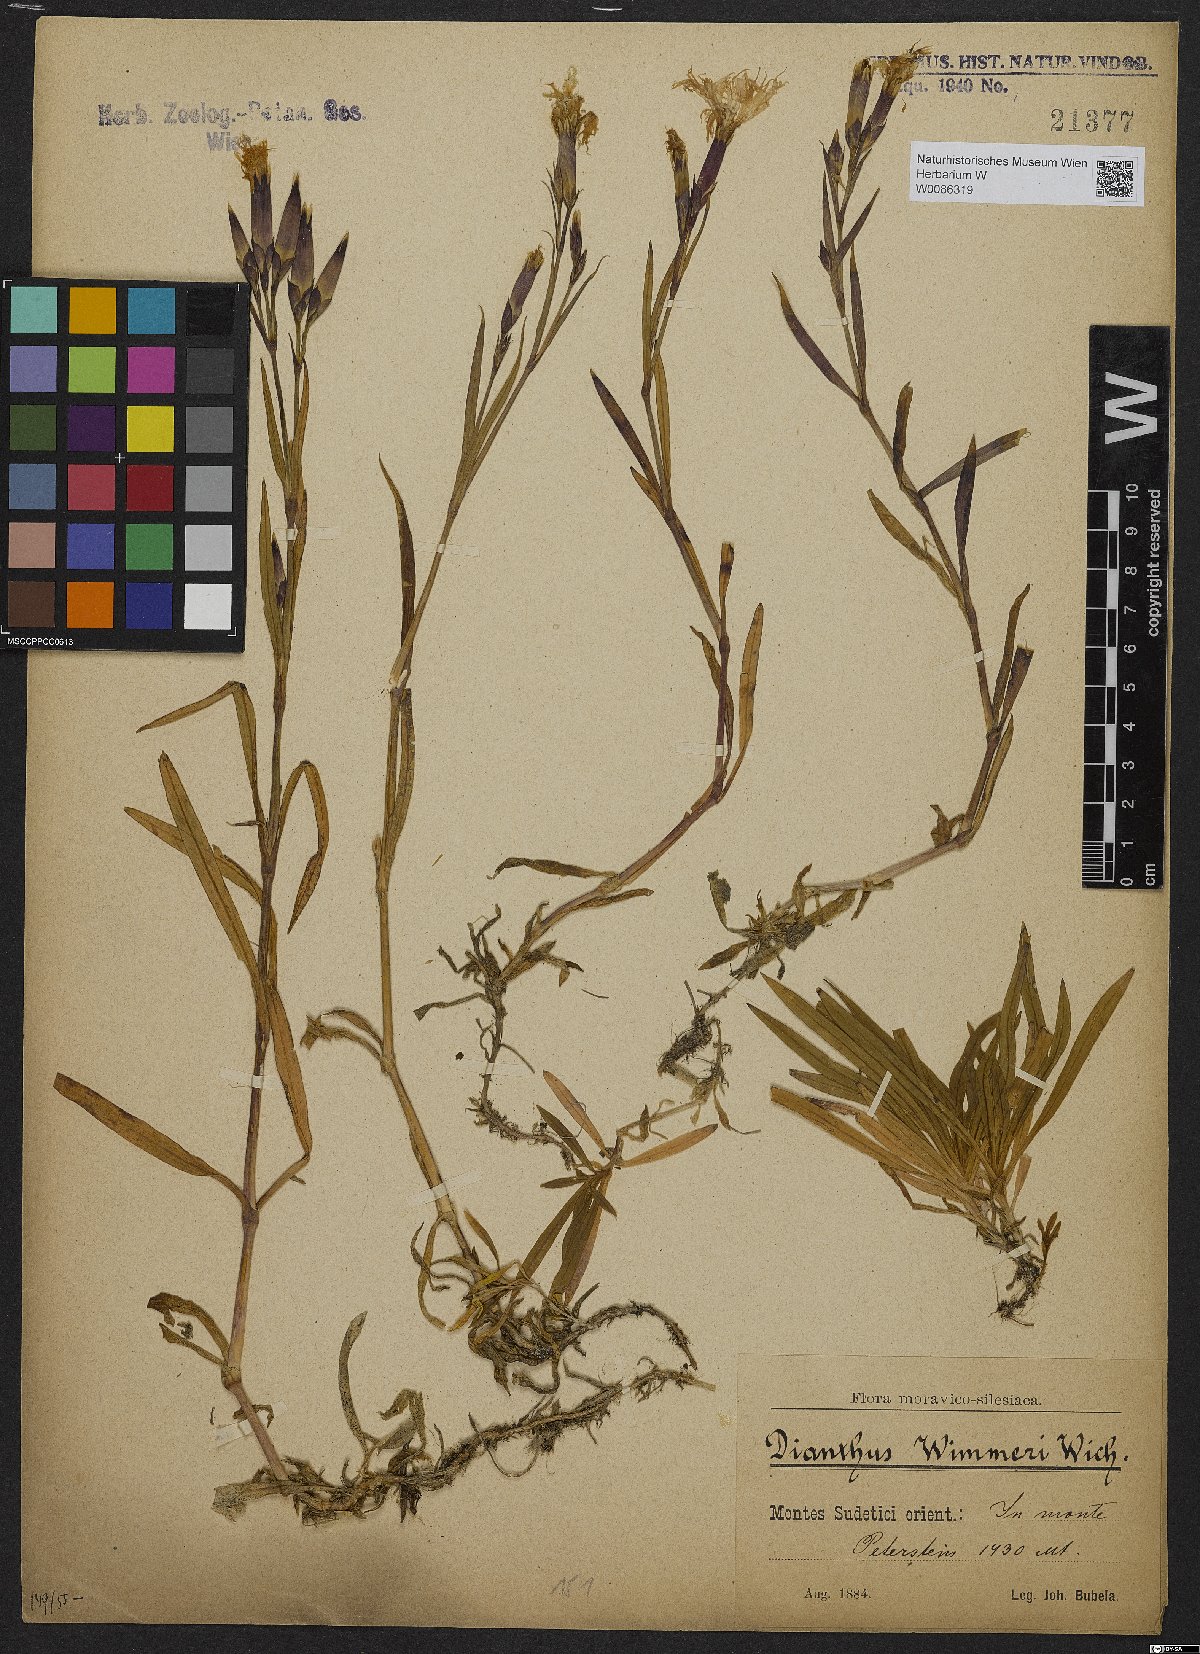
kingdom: Plantae
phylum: Tracheophyta
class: Magnoliopsida
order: Caryophyllales
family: Caryophyllaceae
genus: Dianthus
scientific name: Dianthus superbus
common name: Fringed pink
